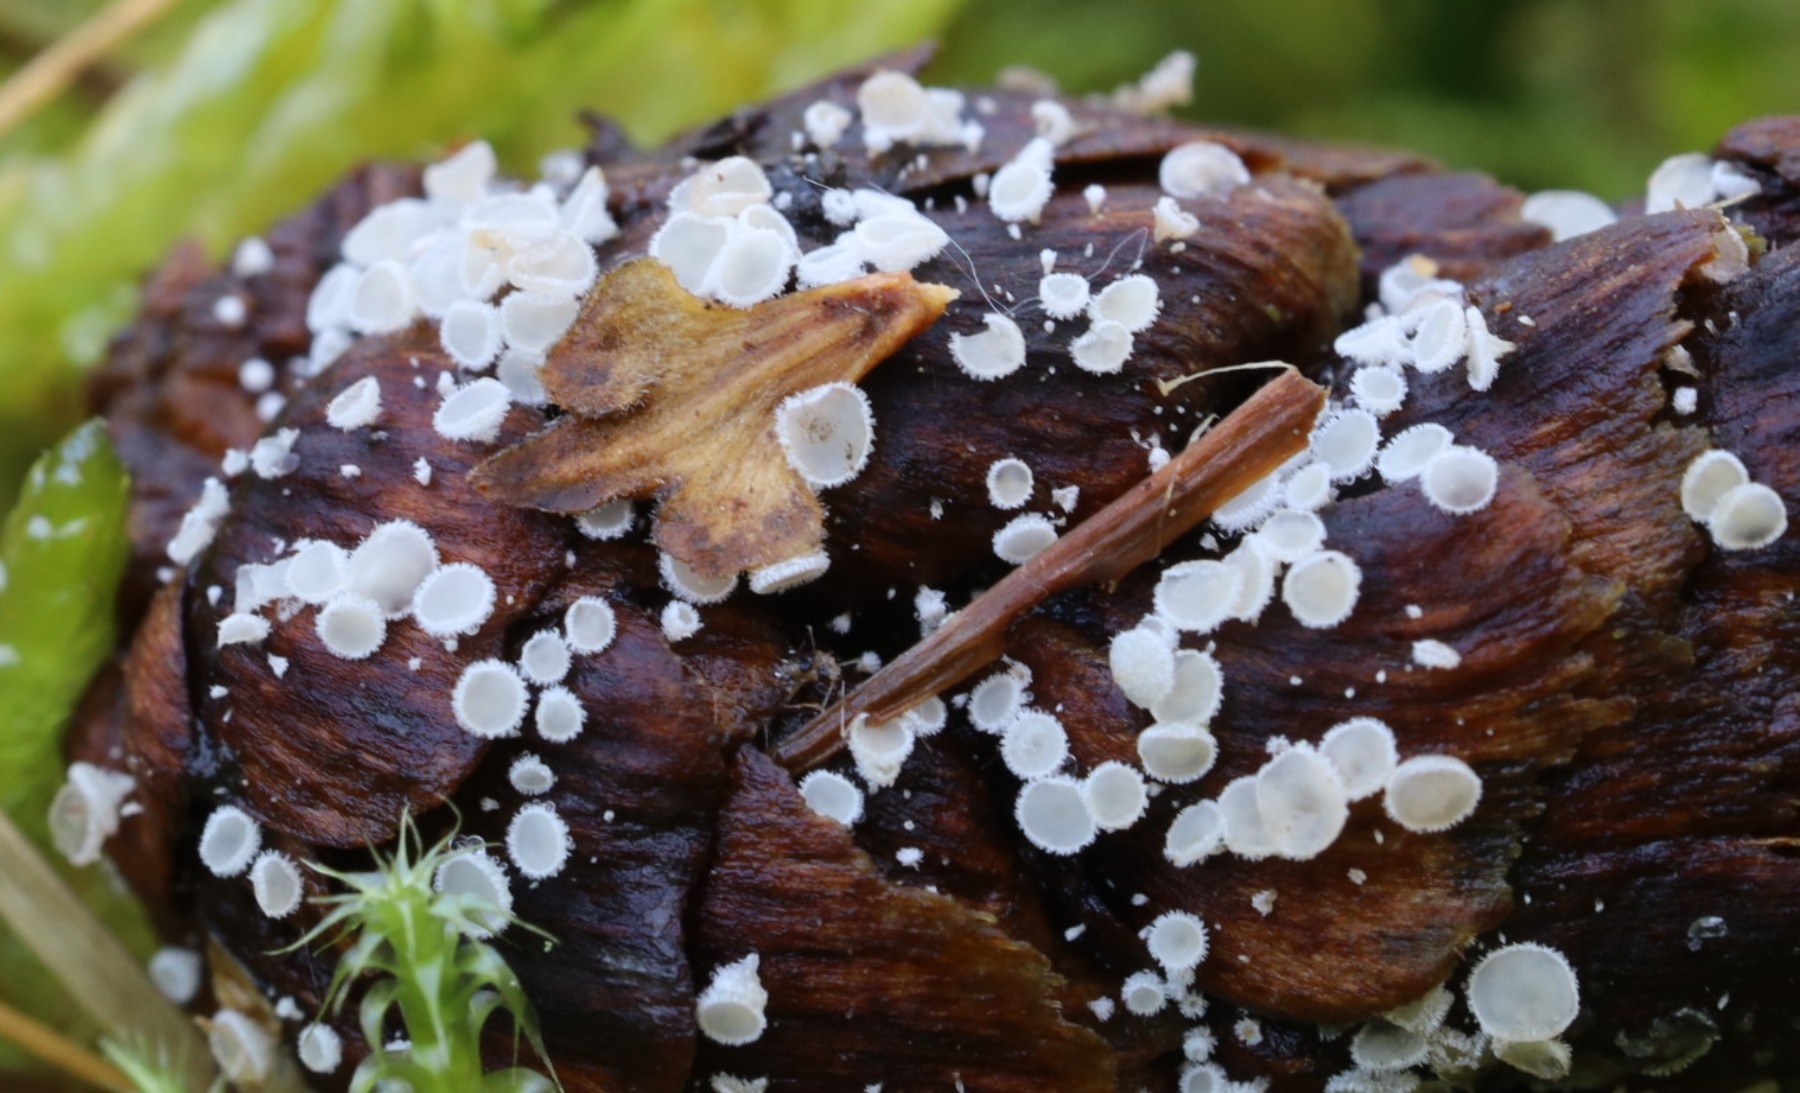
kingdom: Fungi
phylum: Ascomycota
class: Leotiomycetes
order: Helotiales
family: Lachnaceae
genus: Lachnum
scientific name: Lachnum virgineum
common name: jomfru-frynseskive
